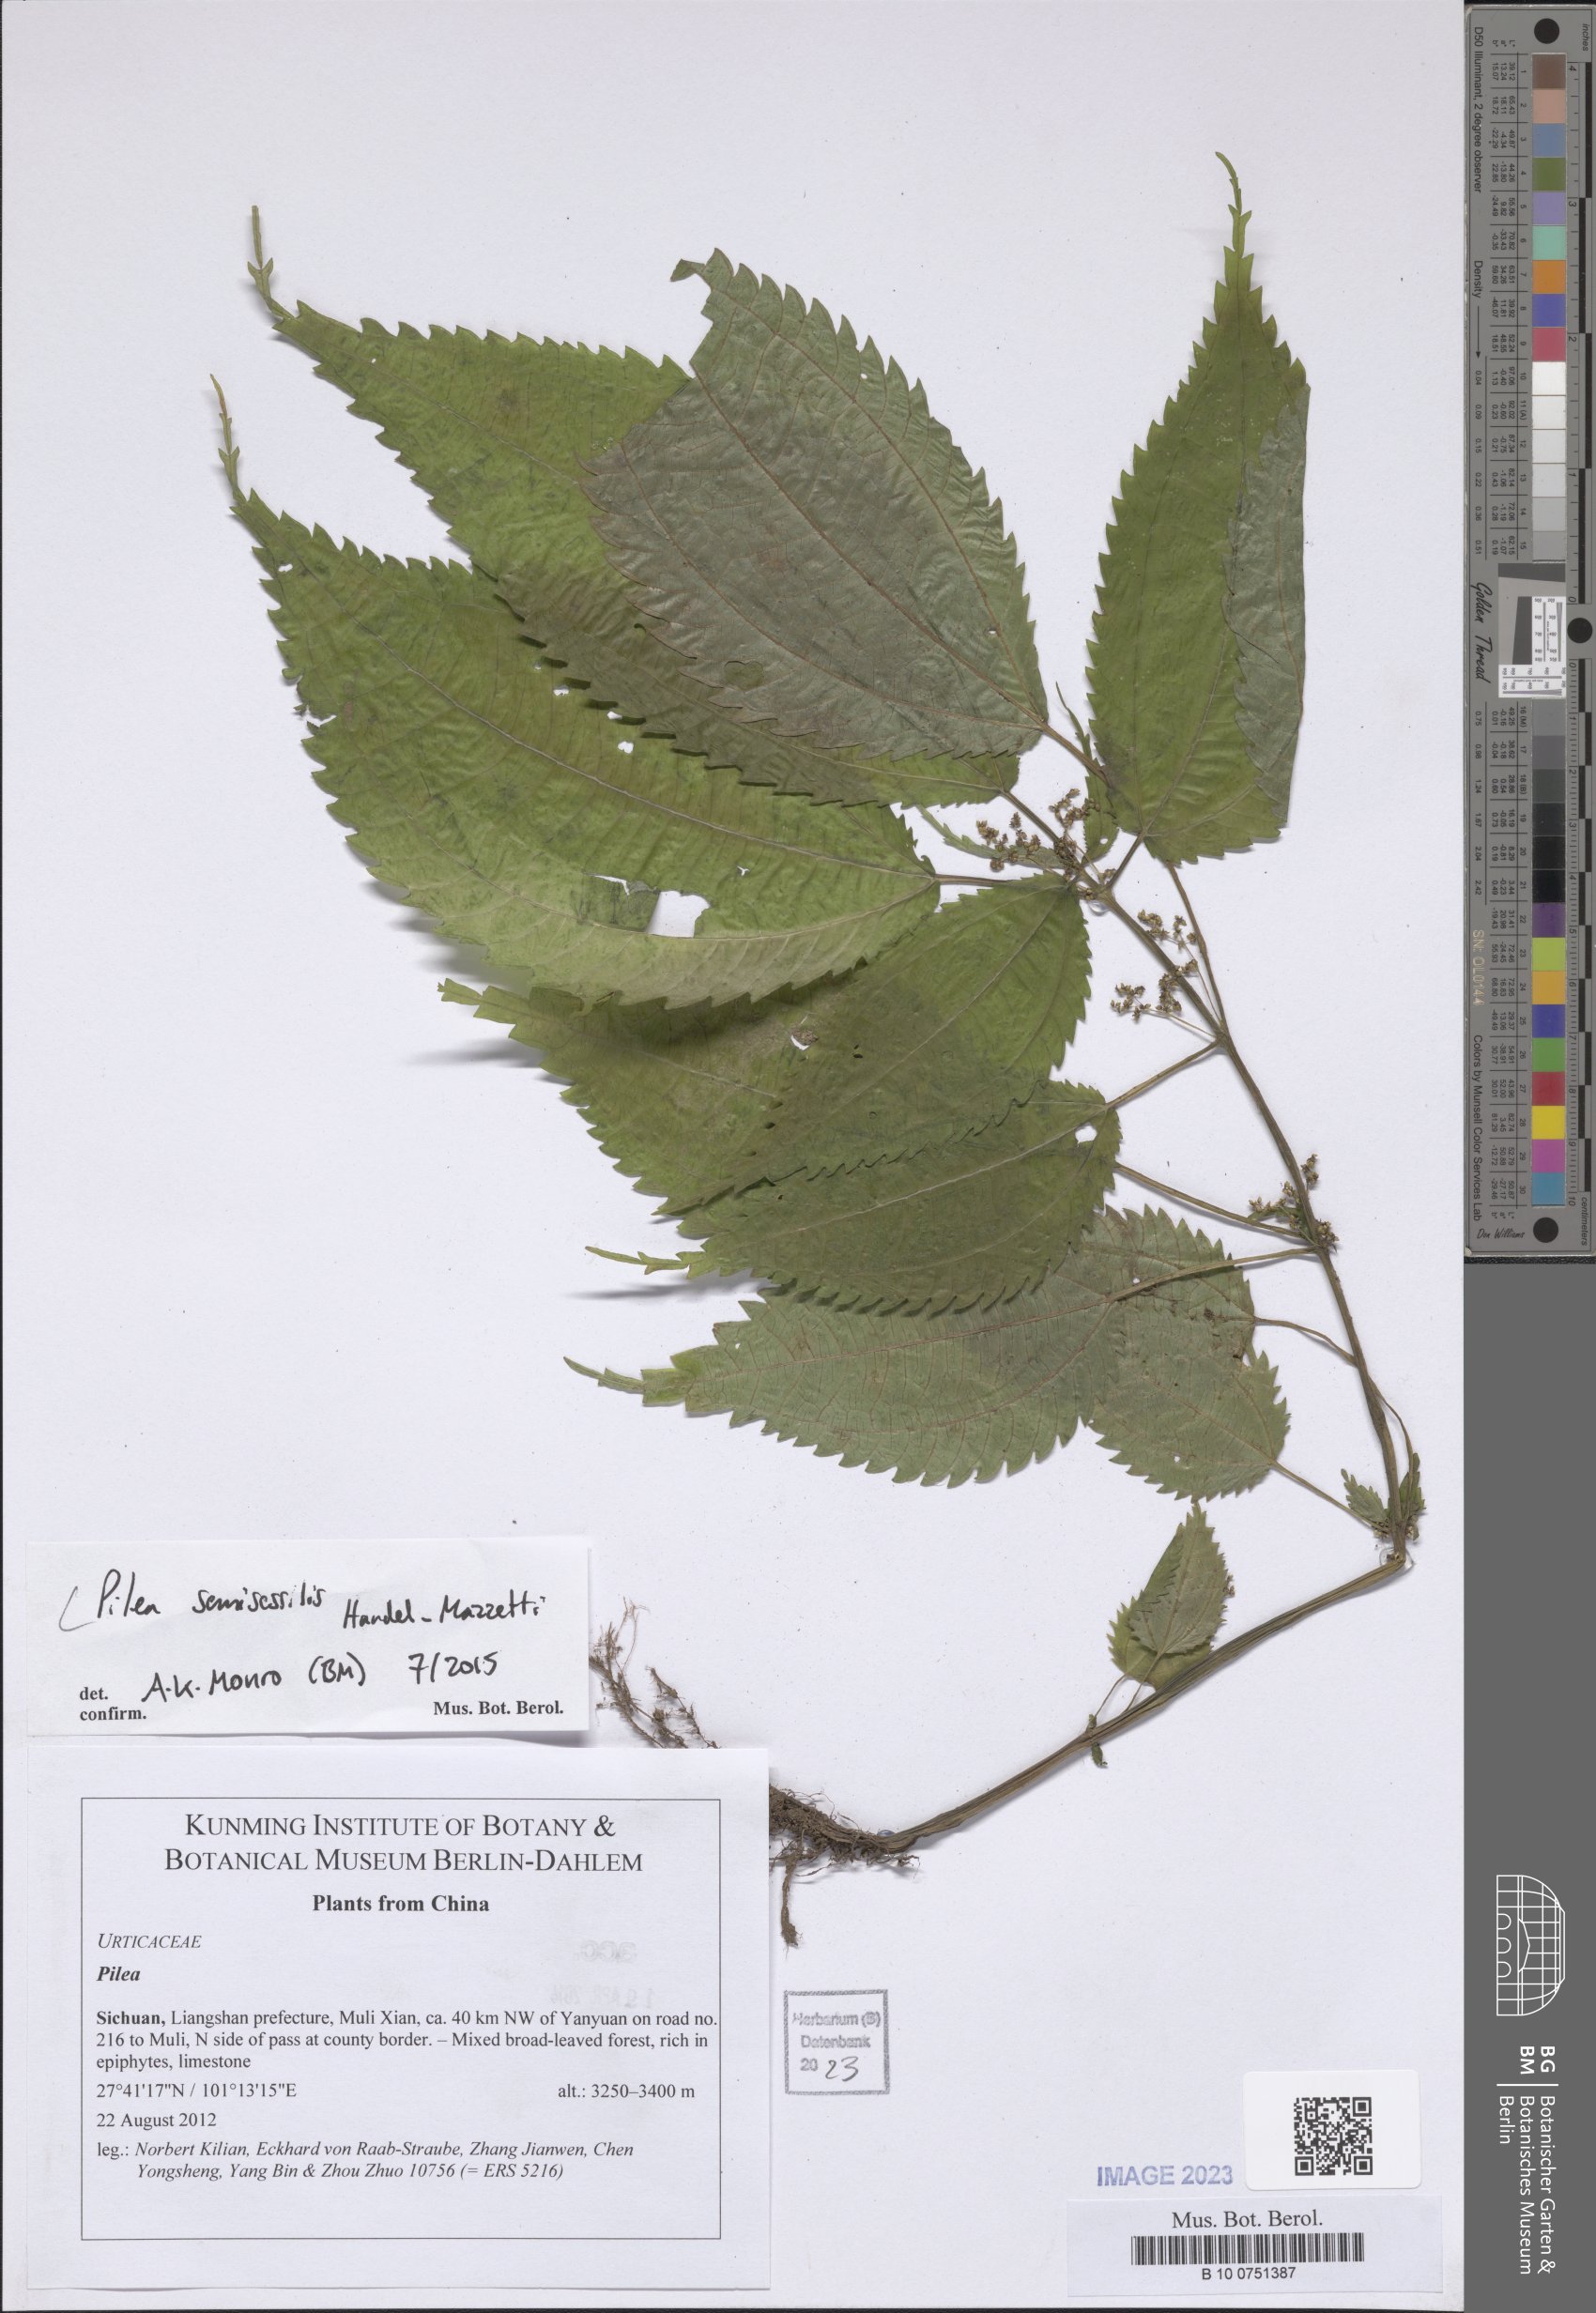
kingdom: Plantae
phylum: Tracheophyta
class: Magnoliopsida
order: Rosales
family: Urticaceae
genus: Pilea
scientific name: Pilea semisessilis
